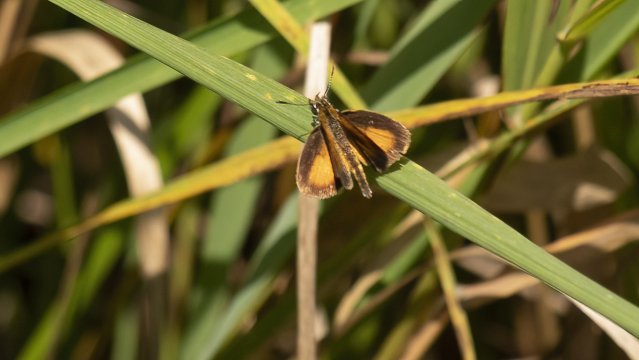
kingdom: Animalia
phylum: Arthropoda
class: Insecta
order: Lepidoptera
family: Hesperiidae
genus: Ancyloxypha
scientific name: Ancyloxypha numitor
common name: Least Skipper
